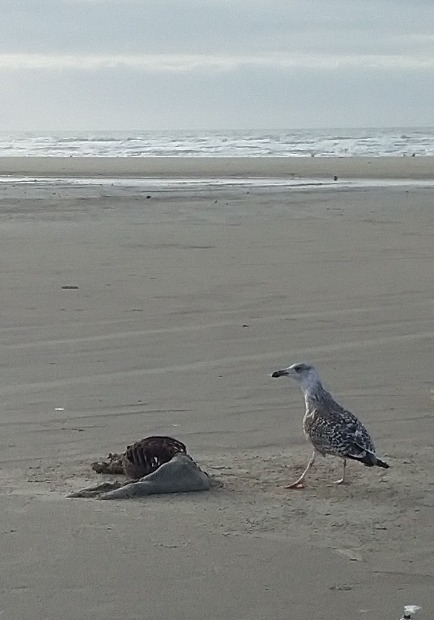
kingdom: Animalia
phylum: Chordata
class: Aves
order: Charadriiformes
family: Laridae
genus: Larus
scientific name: Larus marinus
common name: Svartbag
